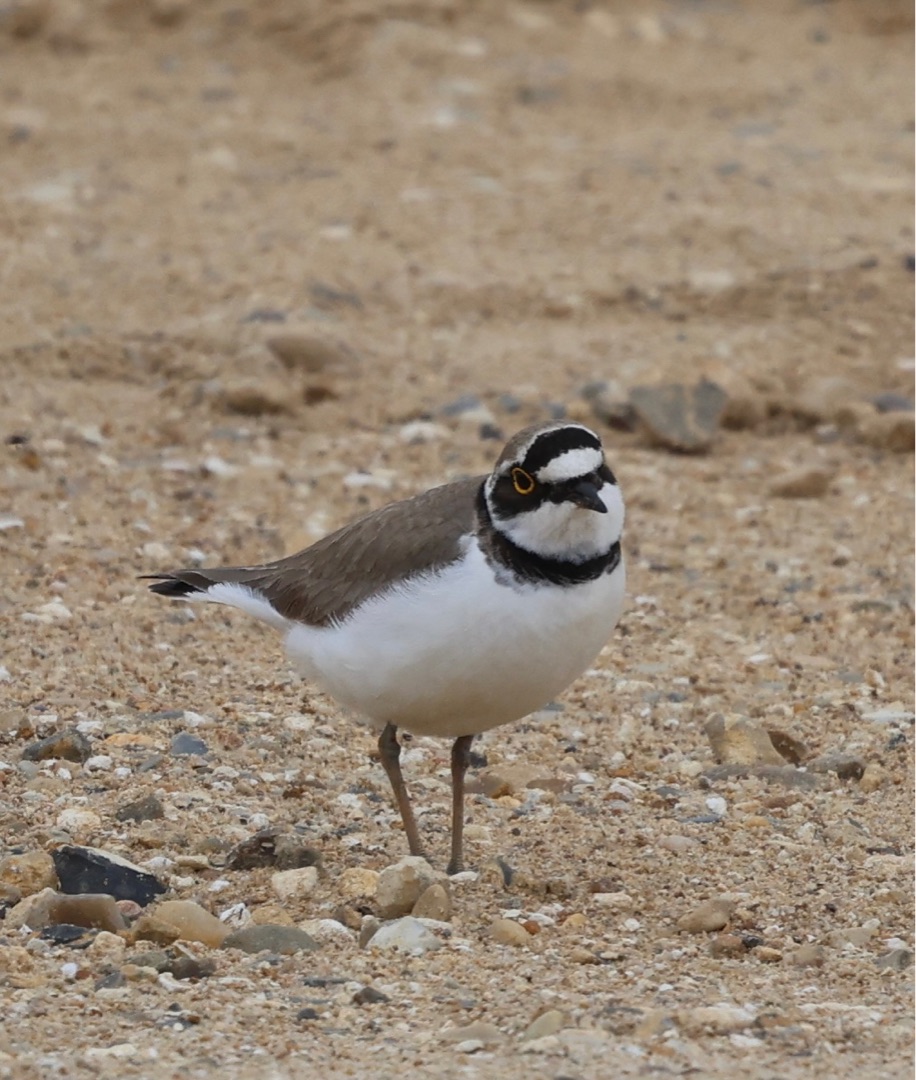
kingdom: Animalia
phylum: Chordata
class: Aves
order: Charadriiformes
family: Charadriidae
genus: Charadrius
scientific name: Charadrius dubius
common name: Lille præstekrave
